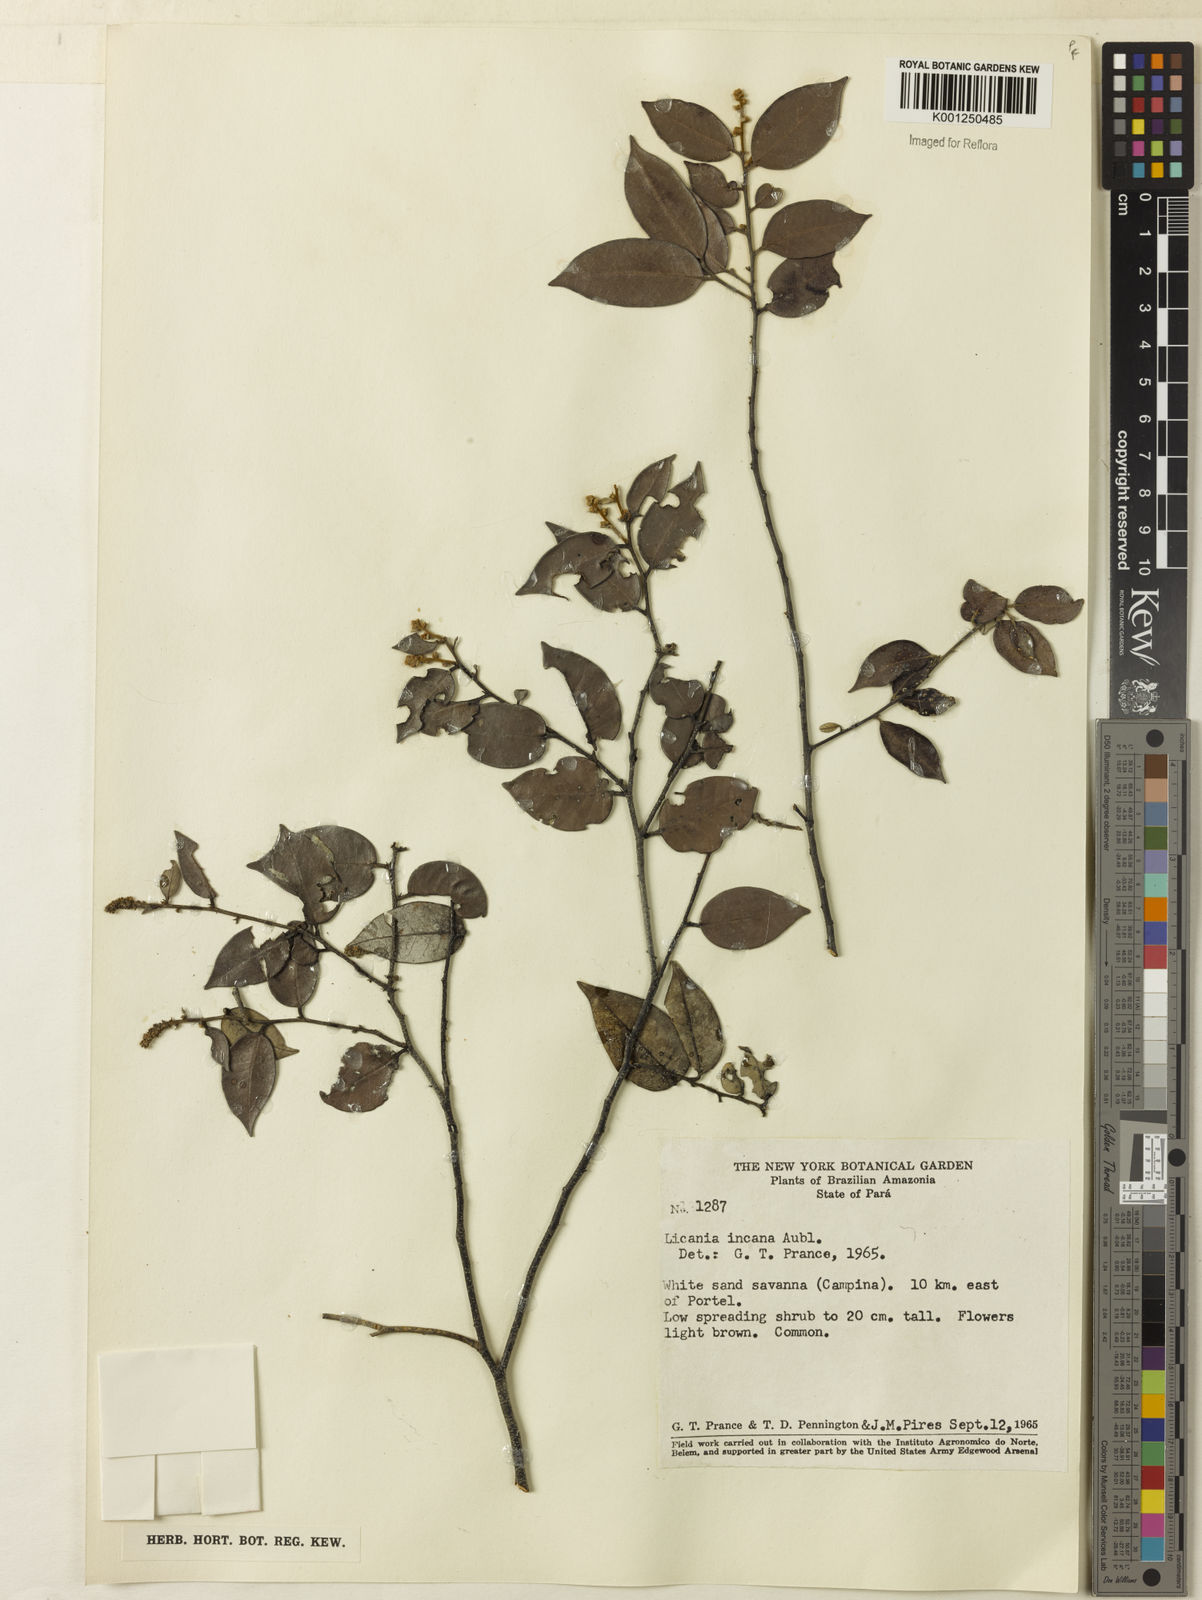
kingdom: Plantae
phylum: Tracheophyta
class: Magnoliopsida
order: Malpighiales
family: Chrysobalanaceae
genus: Licania
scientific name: Licania incana
